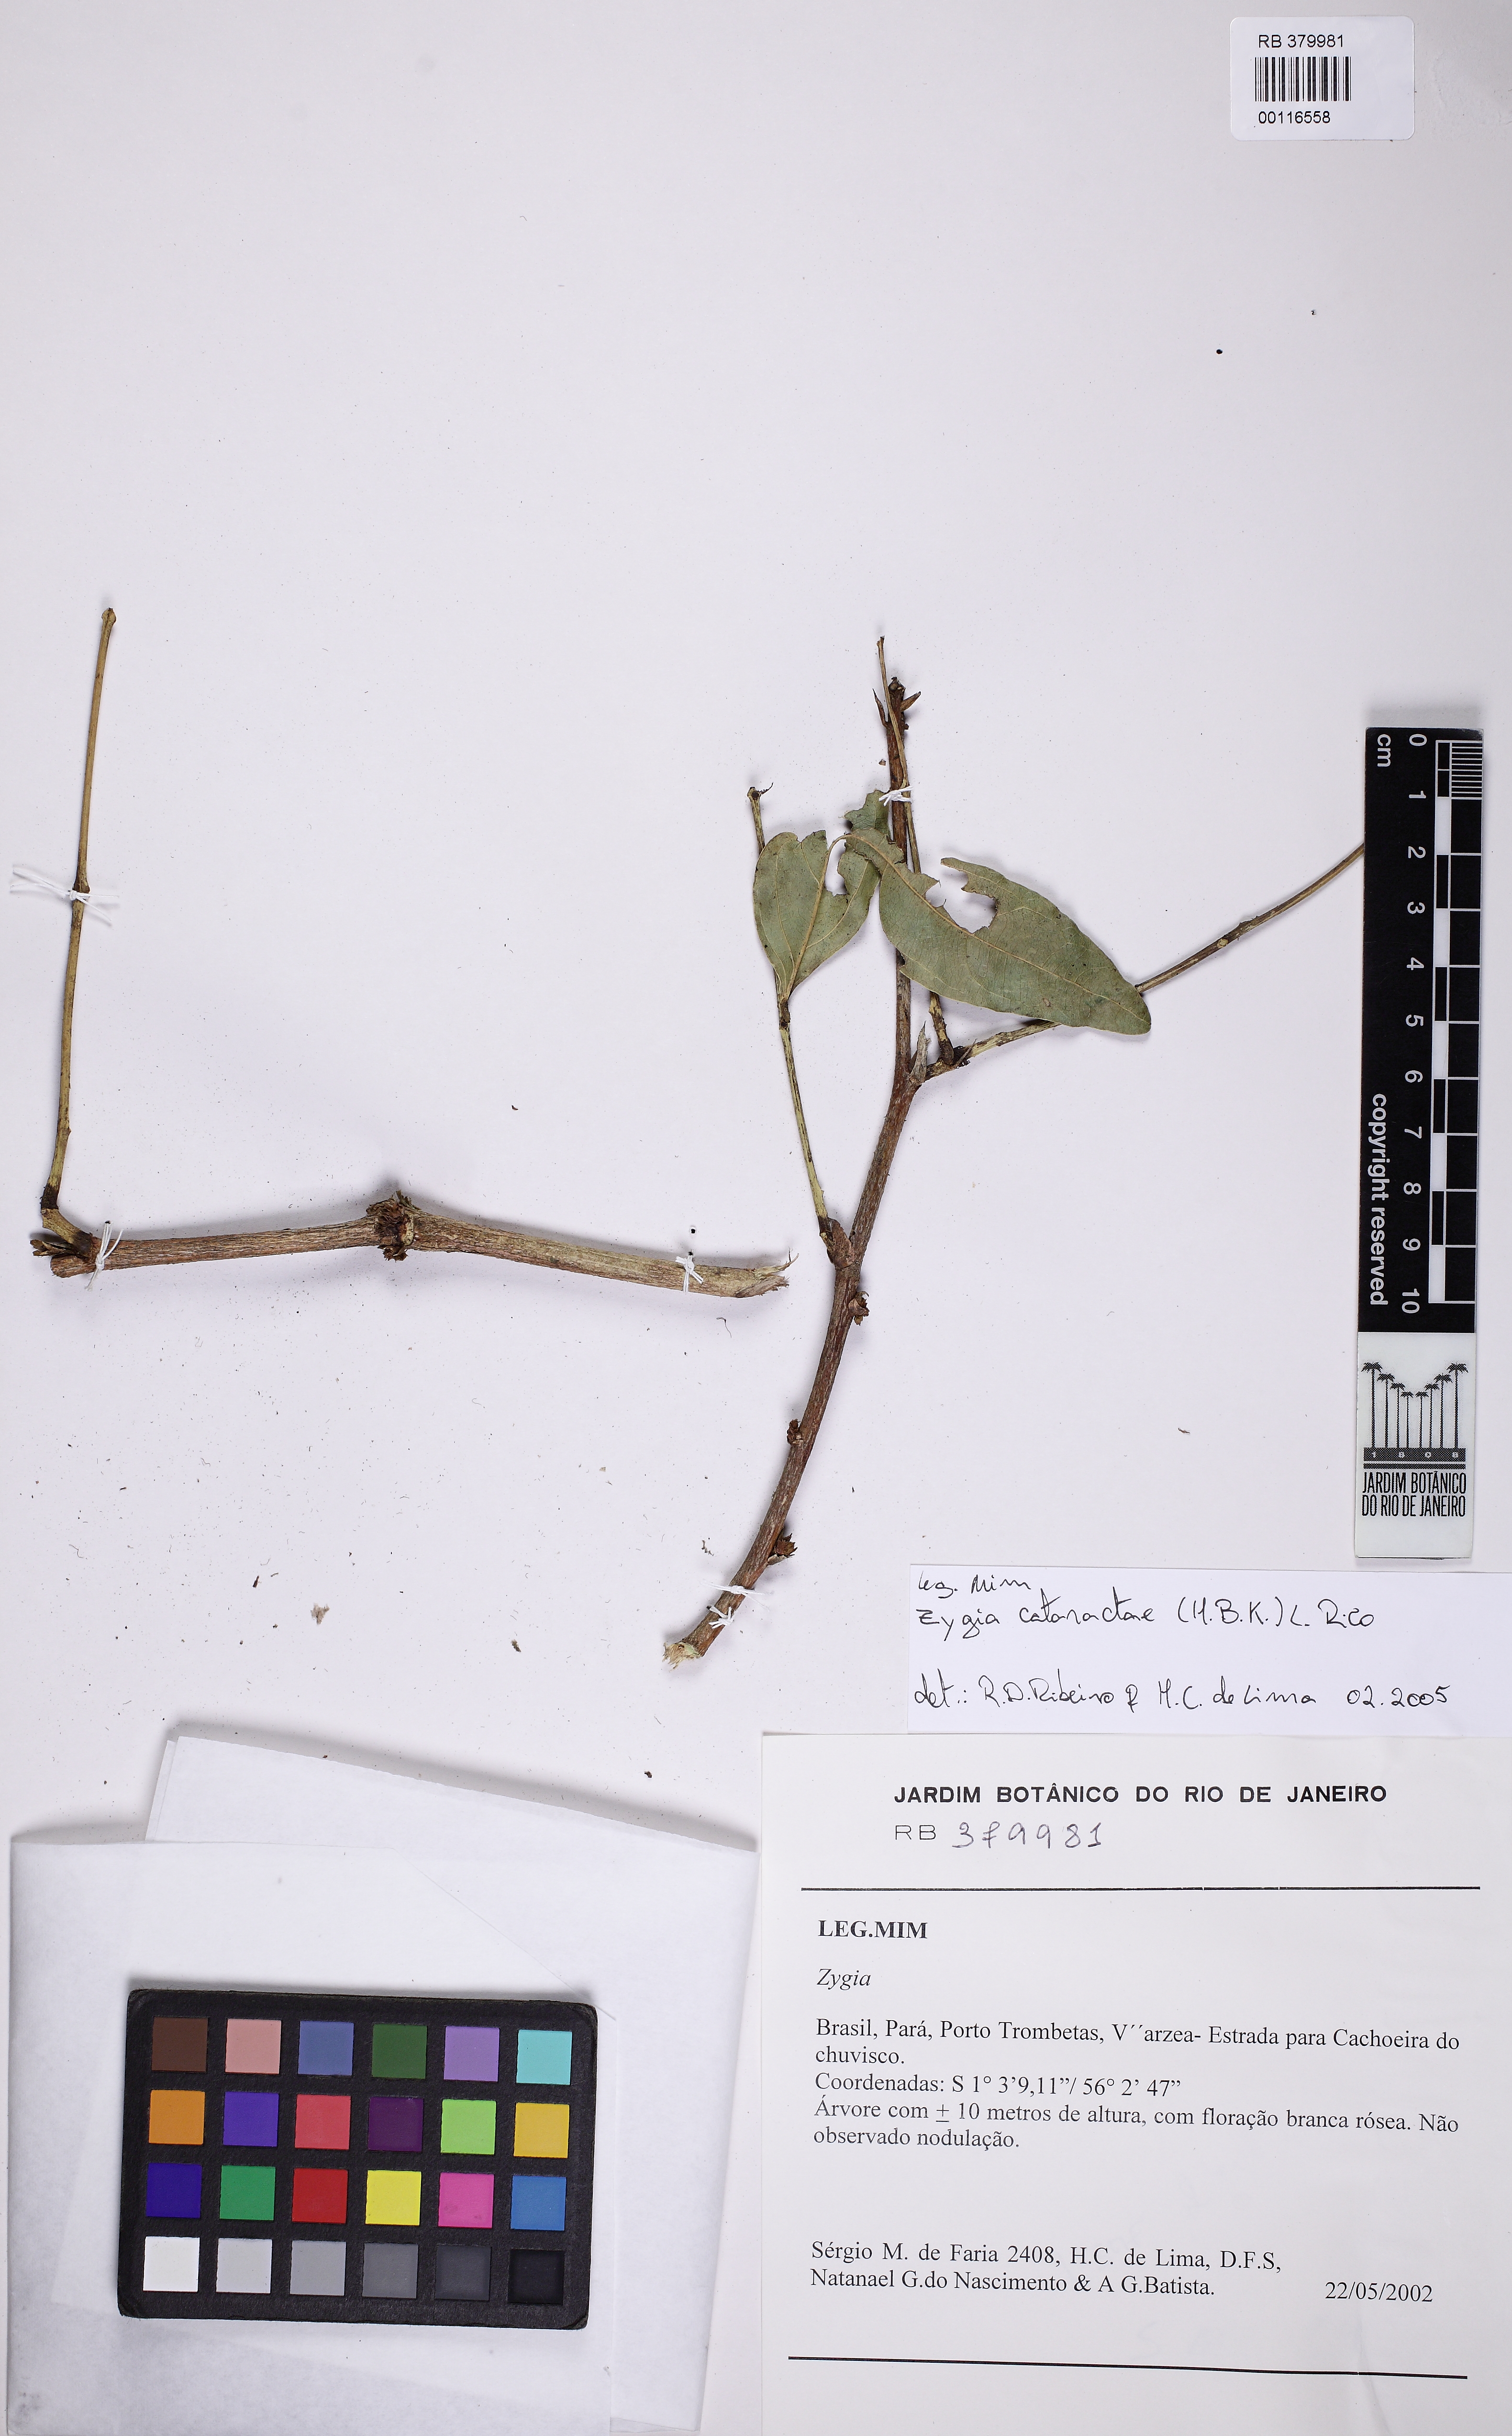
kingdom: Plantae
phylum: Tracheophyta
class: Magnoliopsida
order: Fabales
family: Fabaceae
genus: Zygia
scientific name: Zygia cataractae
